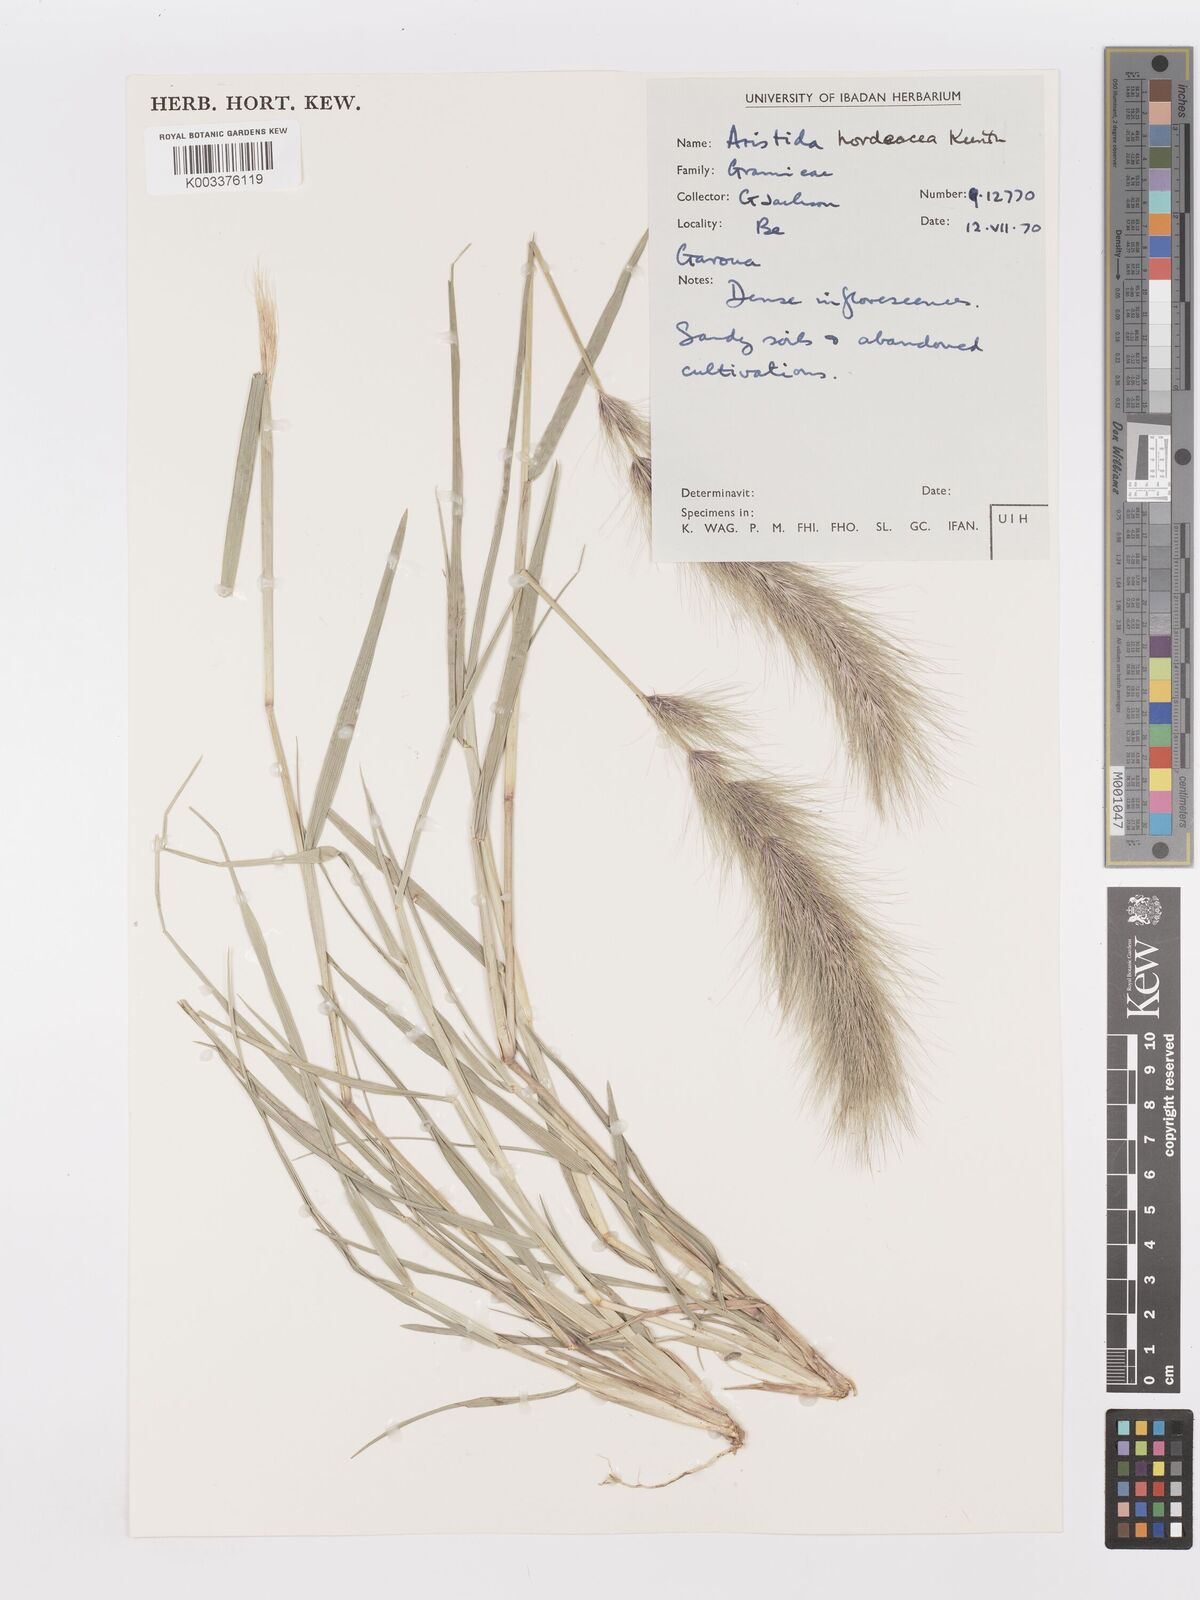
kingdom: Plantae
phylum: Tracheophyta
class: Liliopsida
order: Poales
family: Poaceae
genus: Aristida
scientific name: Aristida hordeacea
